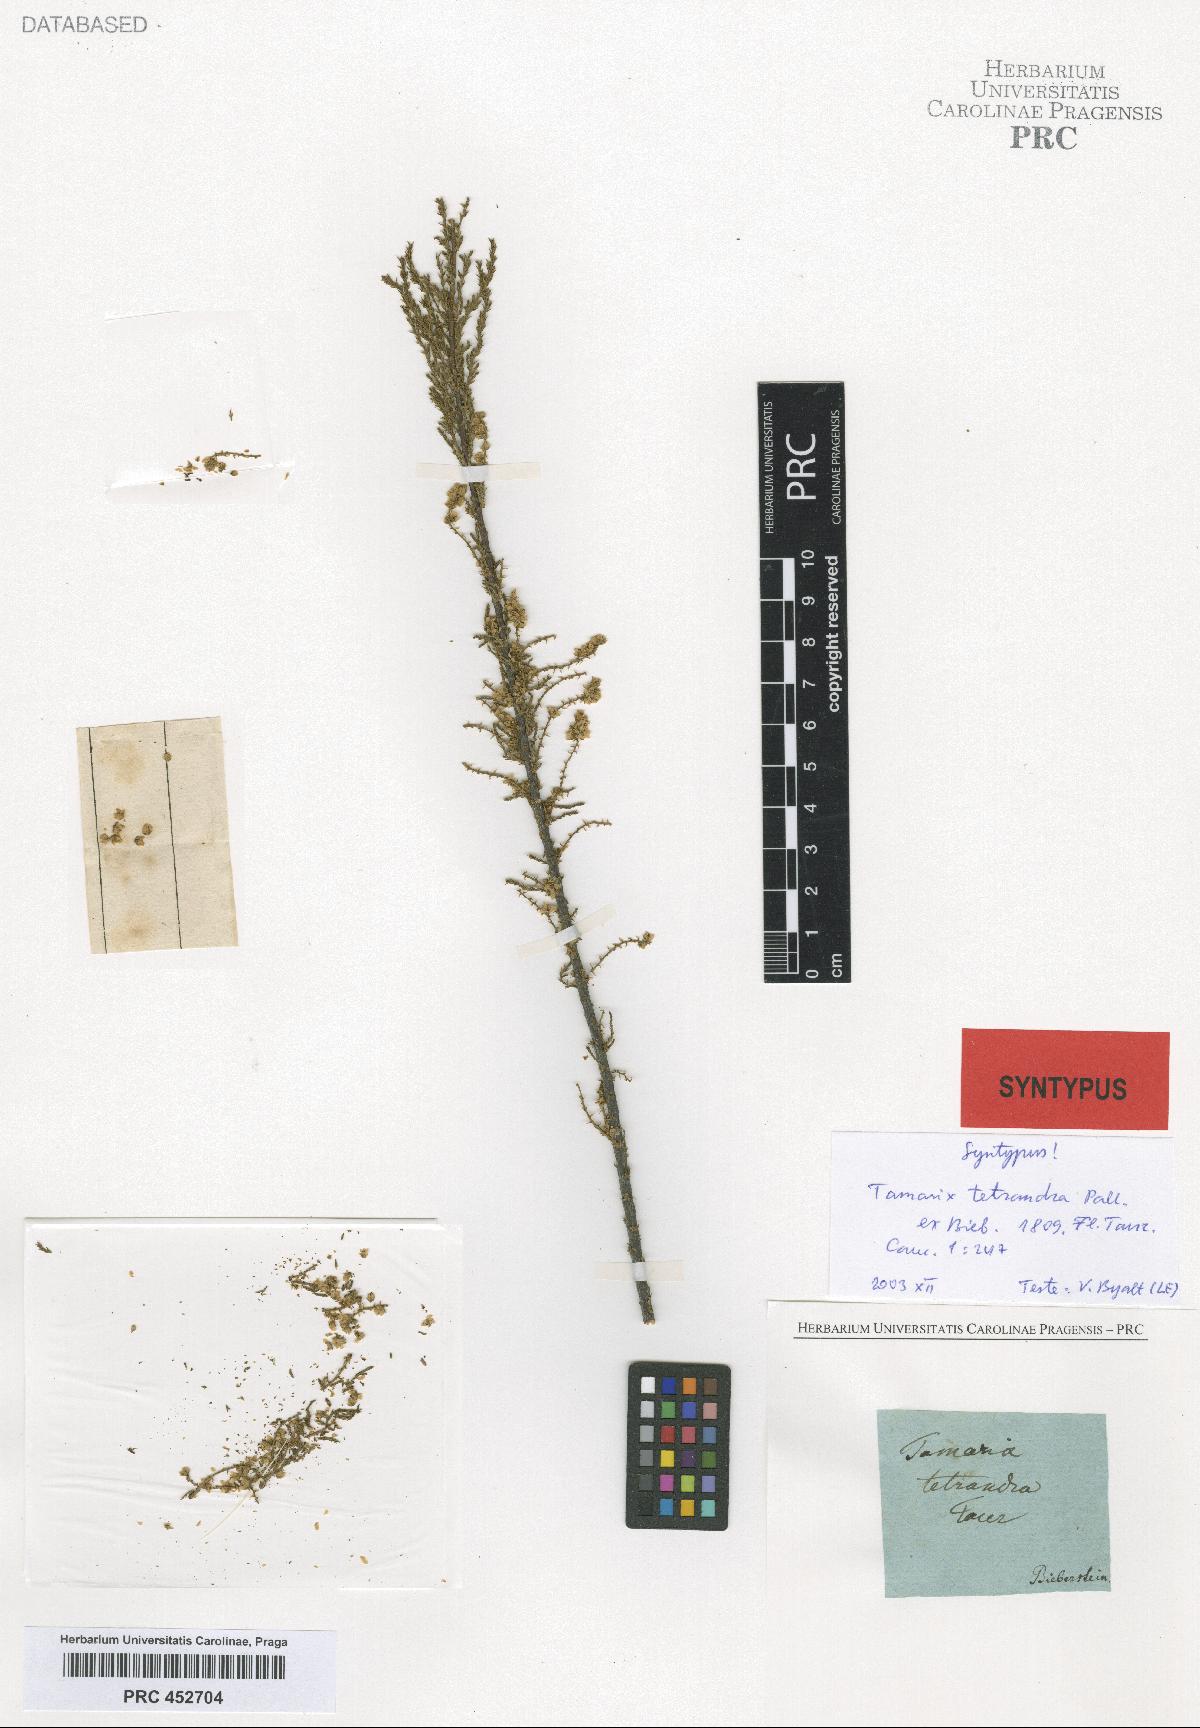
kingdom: Plantae
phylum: Tracheophyta
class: Magnoliopsida
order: Caryophyllales
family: Tamaricaceae
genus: Tamarix
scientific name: Tamarix tetrandra
